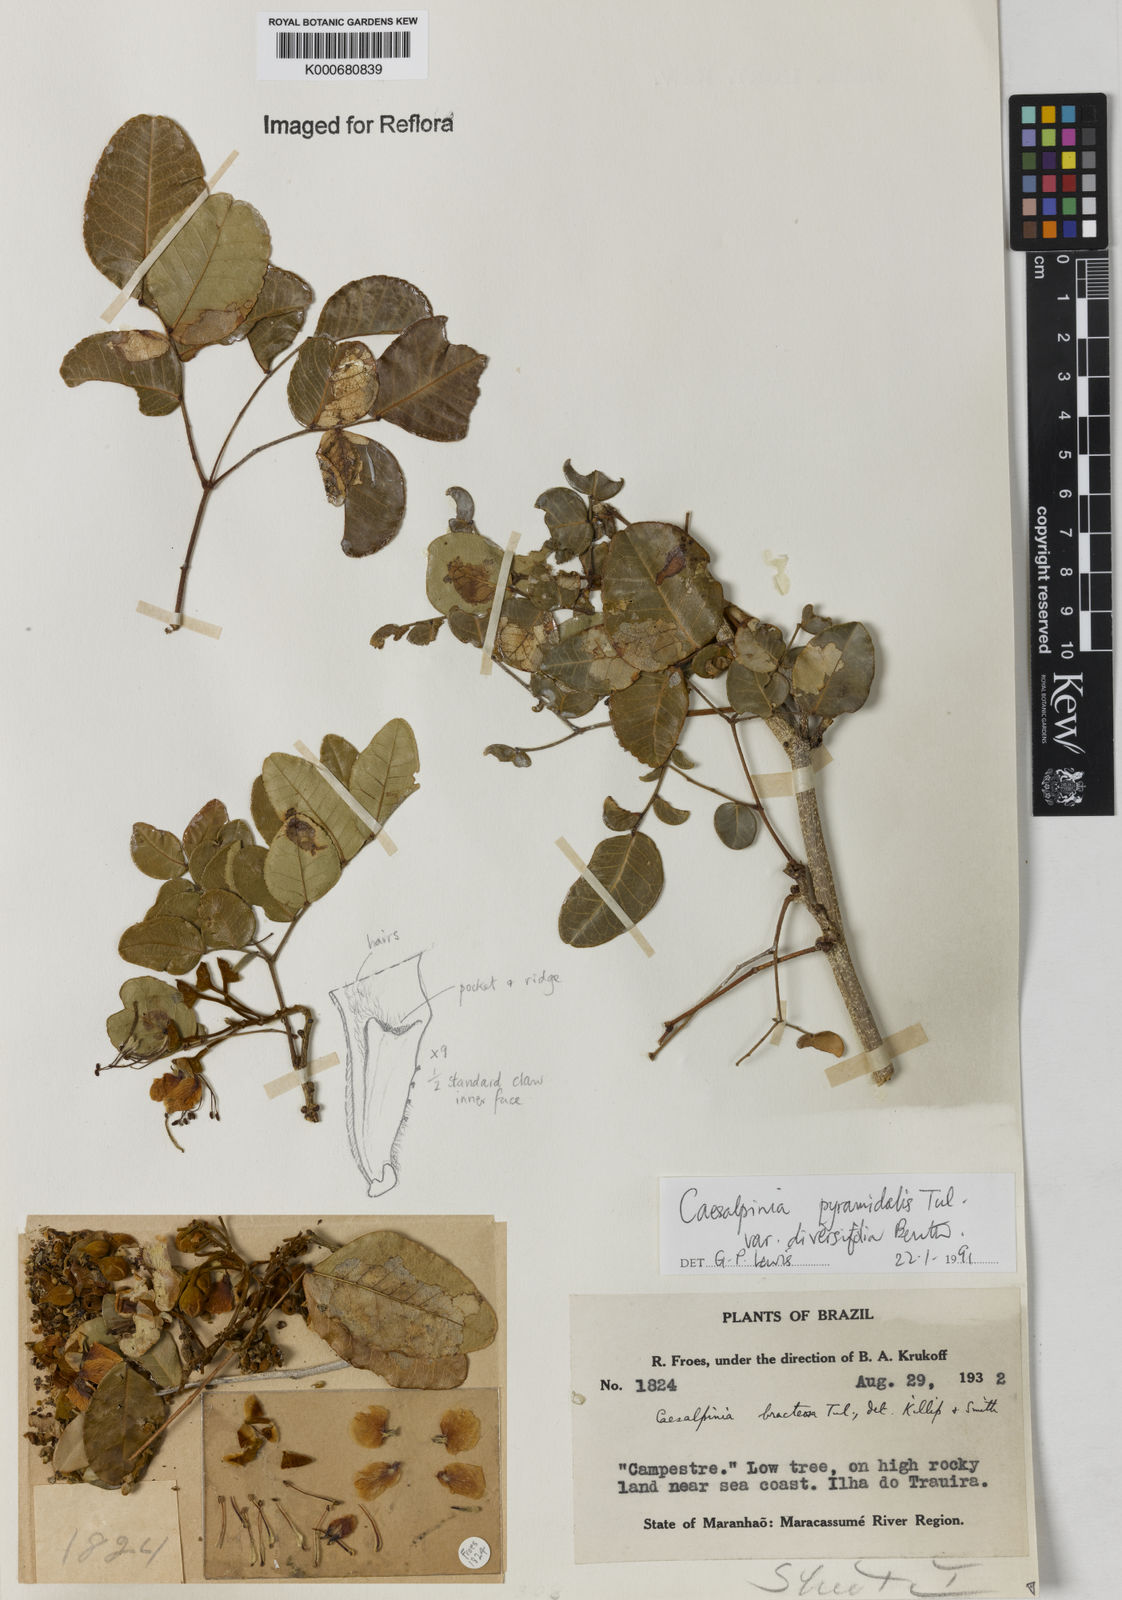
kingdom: Plantae
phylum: Tracheophyta
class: Magnoliopsida
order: Fabales
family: Fabaceae
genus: Cenostigma
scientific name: Cenostigma diversifolium
